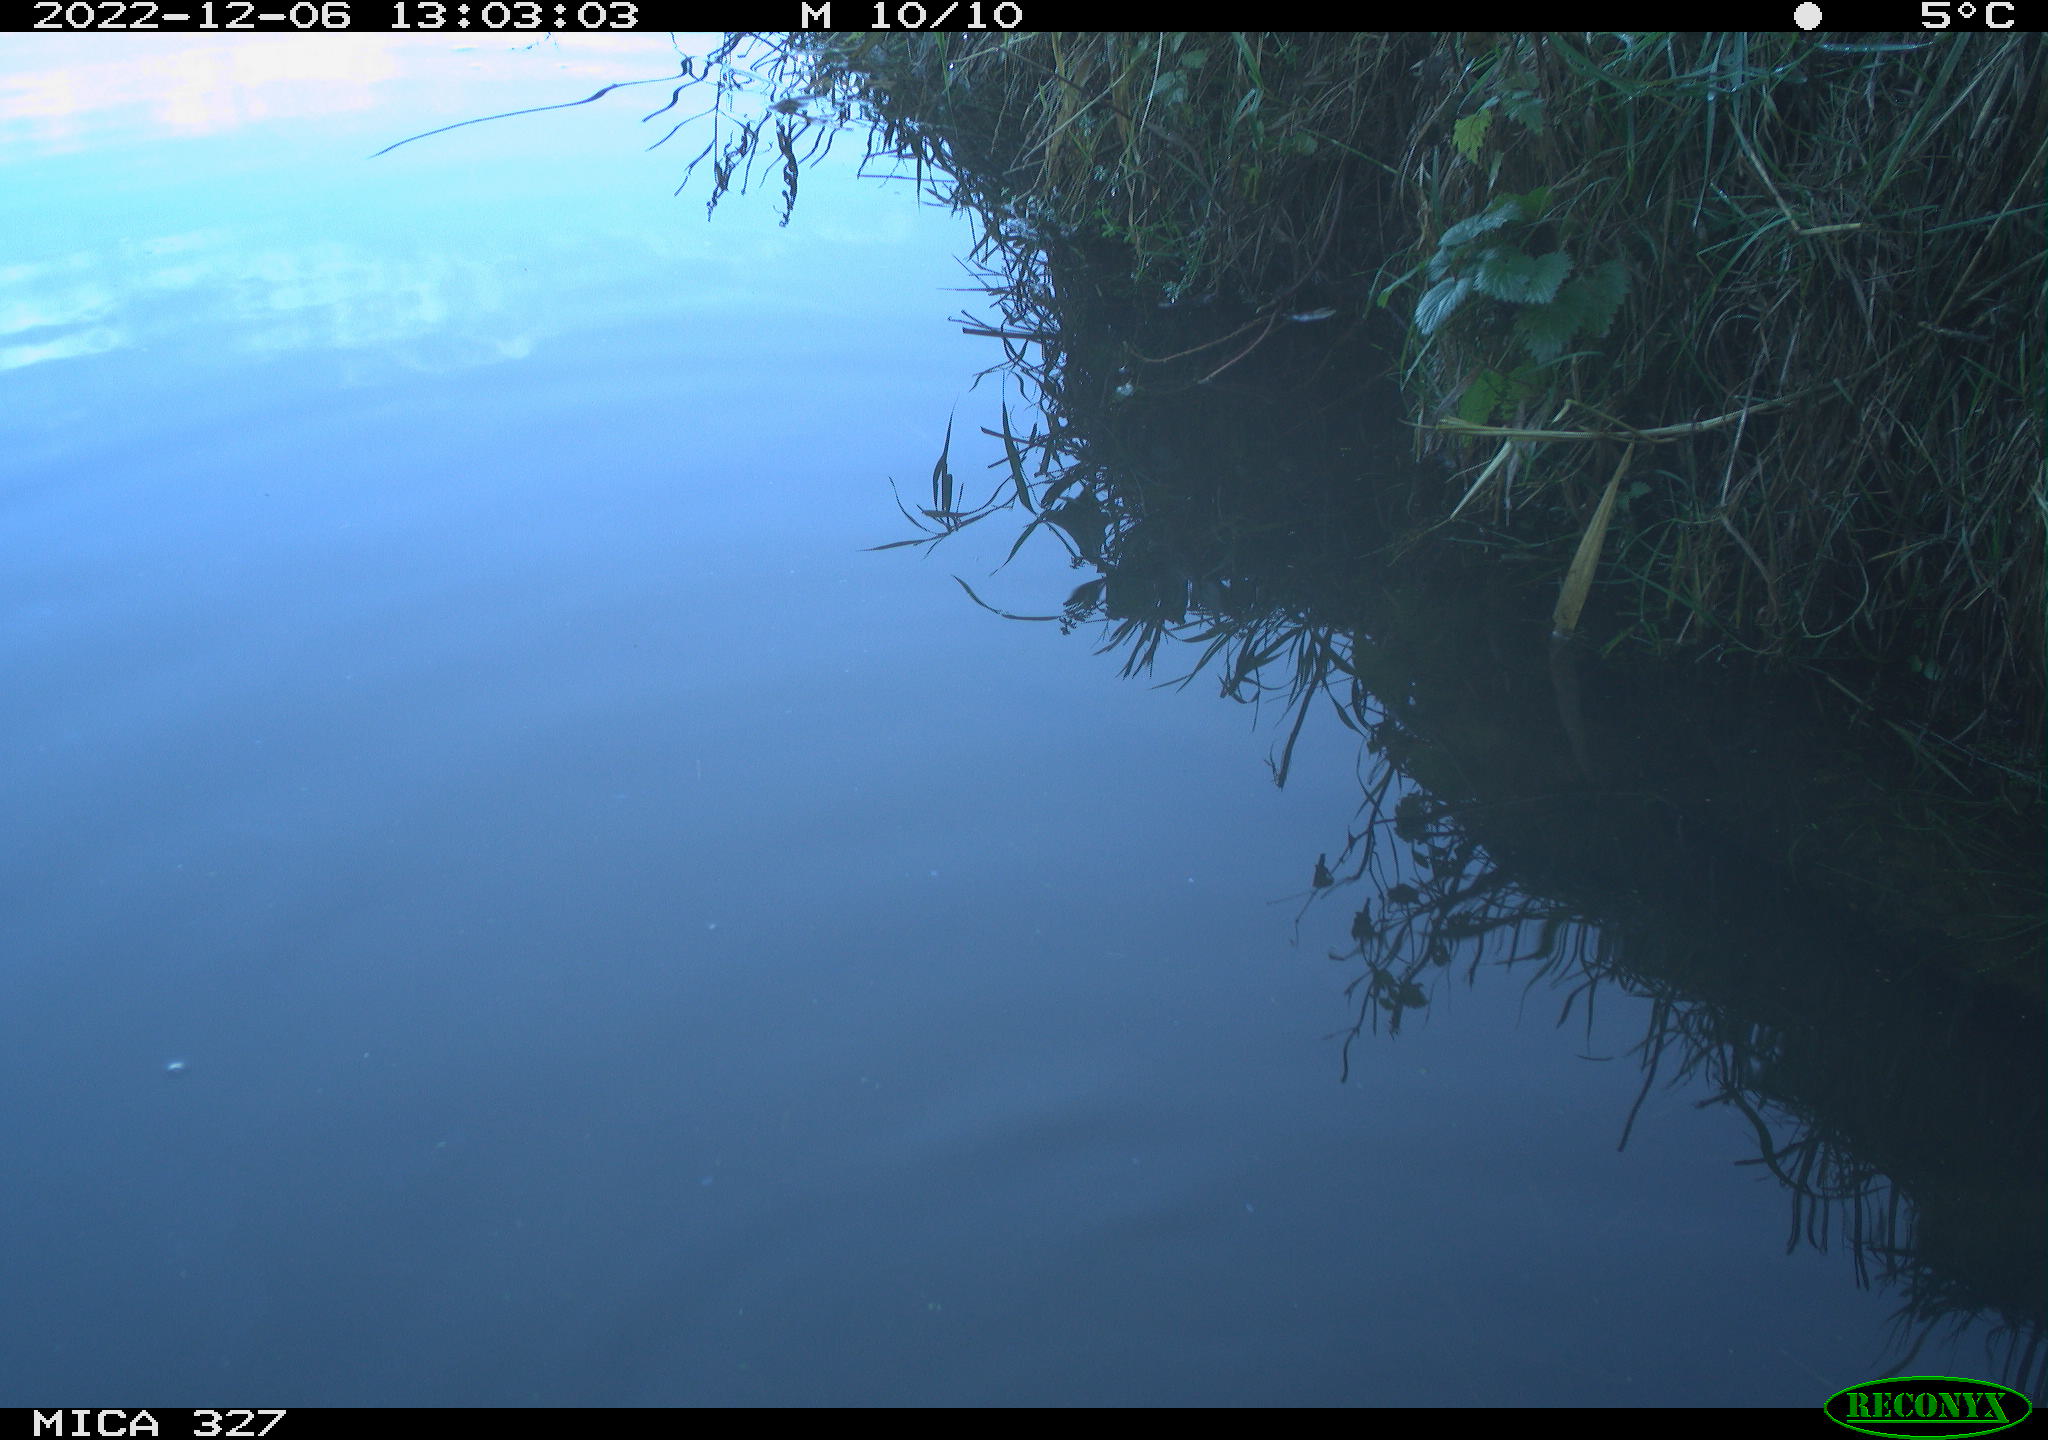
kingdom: Animalia
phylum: Chordata
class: Aves
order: Gruiformes
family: Rallidae
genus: Gallinula
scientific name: Gallinula chloropus
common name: Common moorhen
